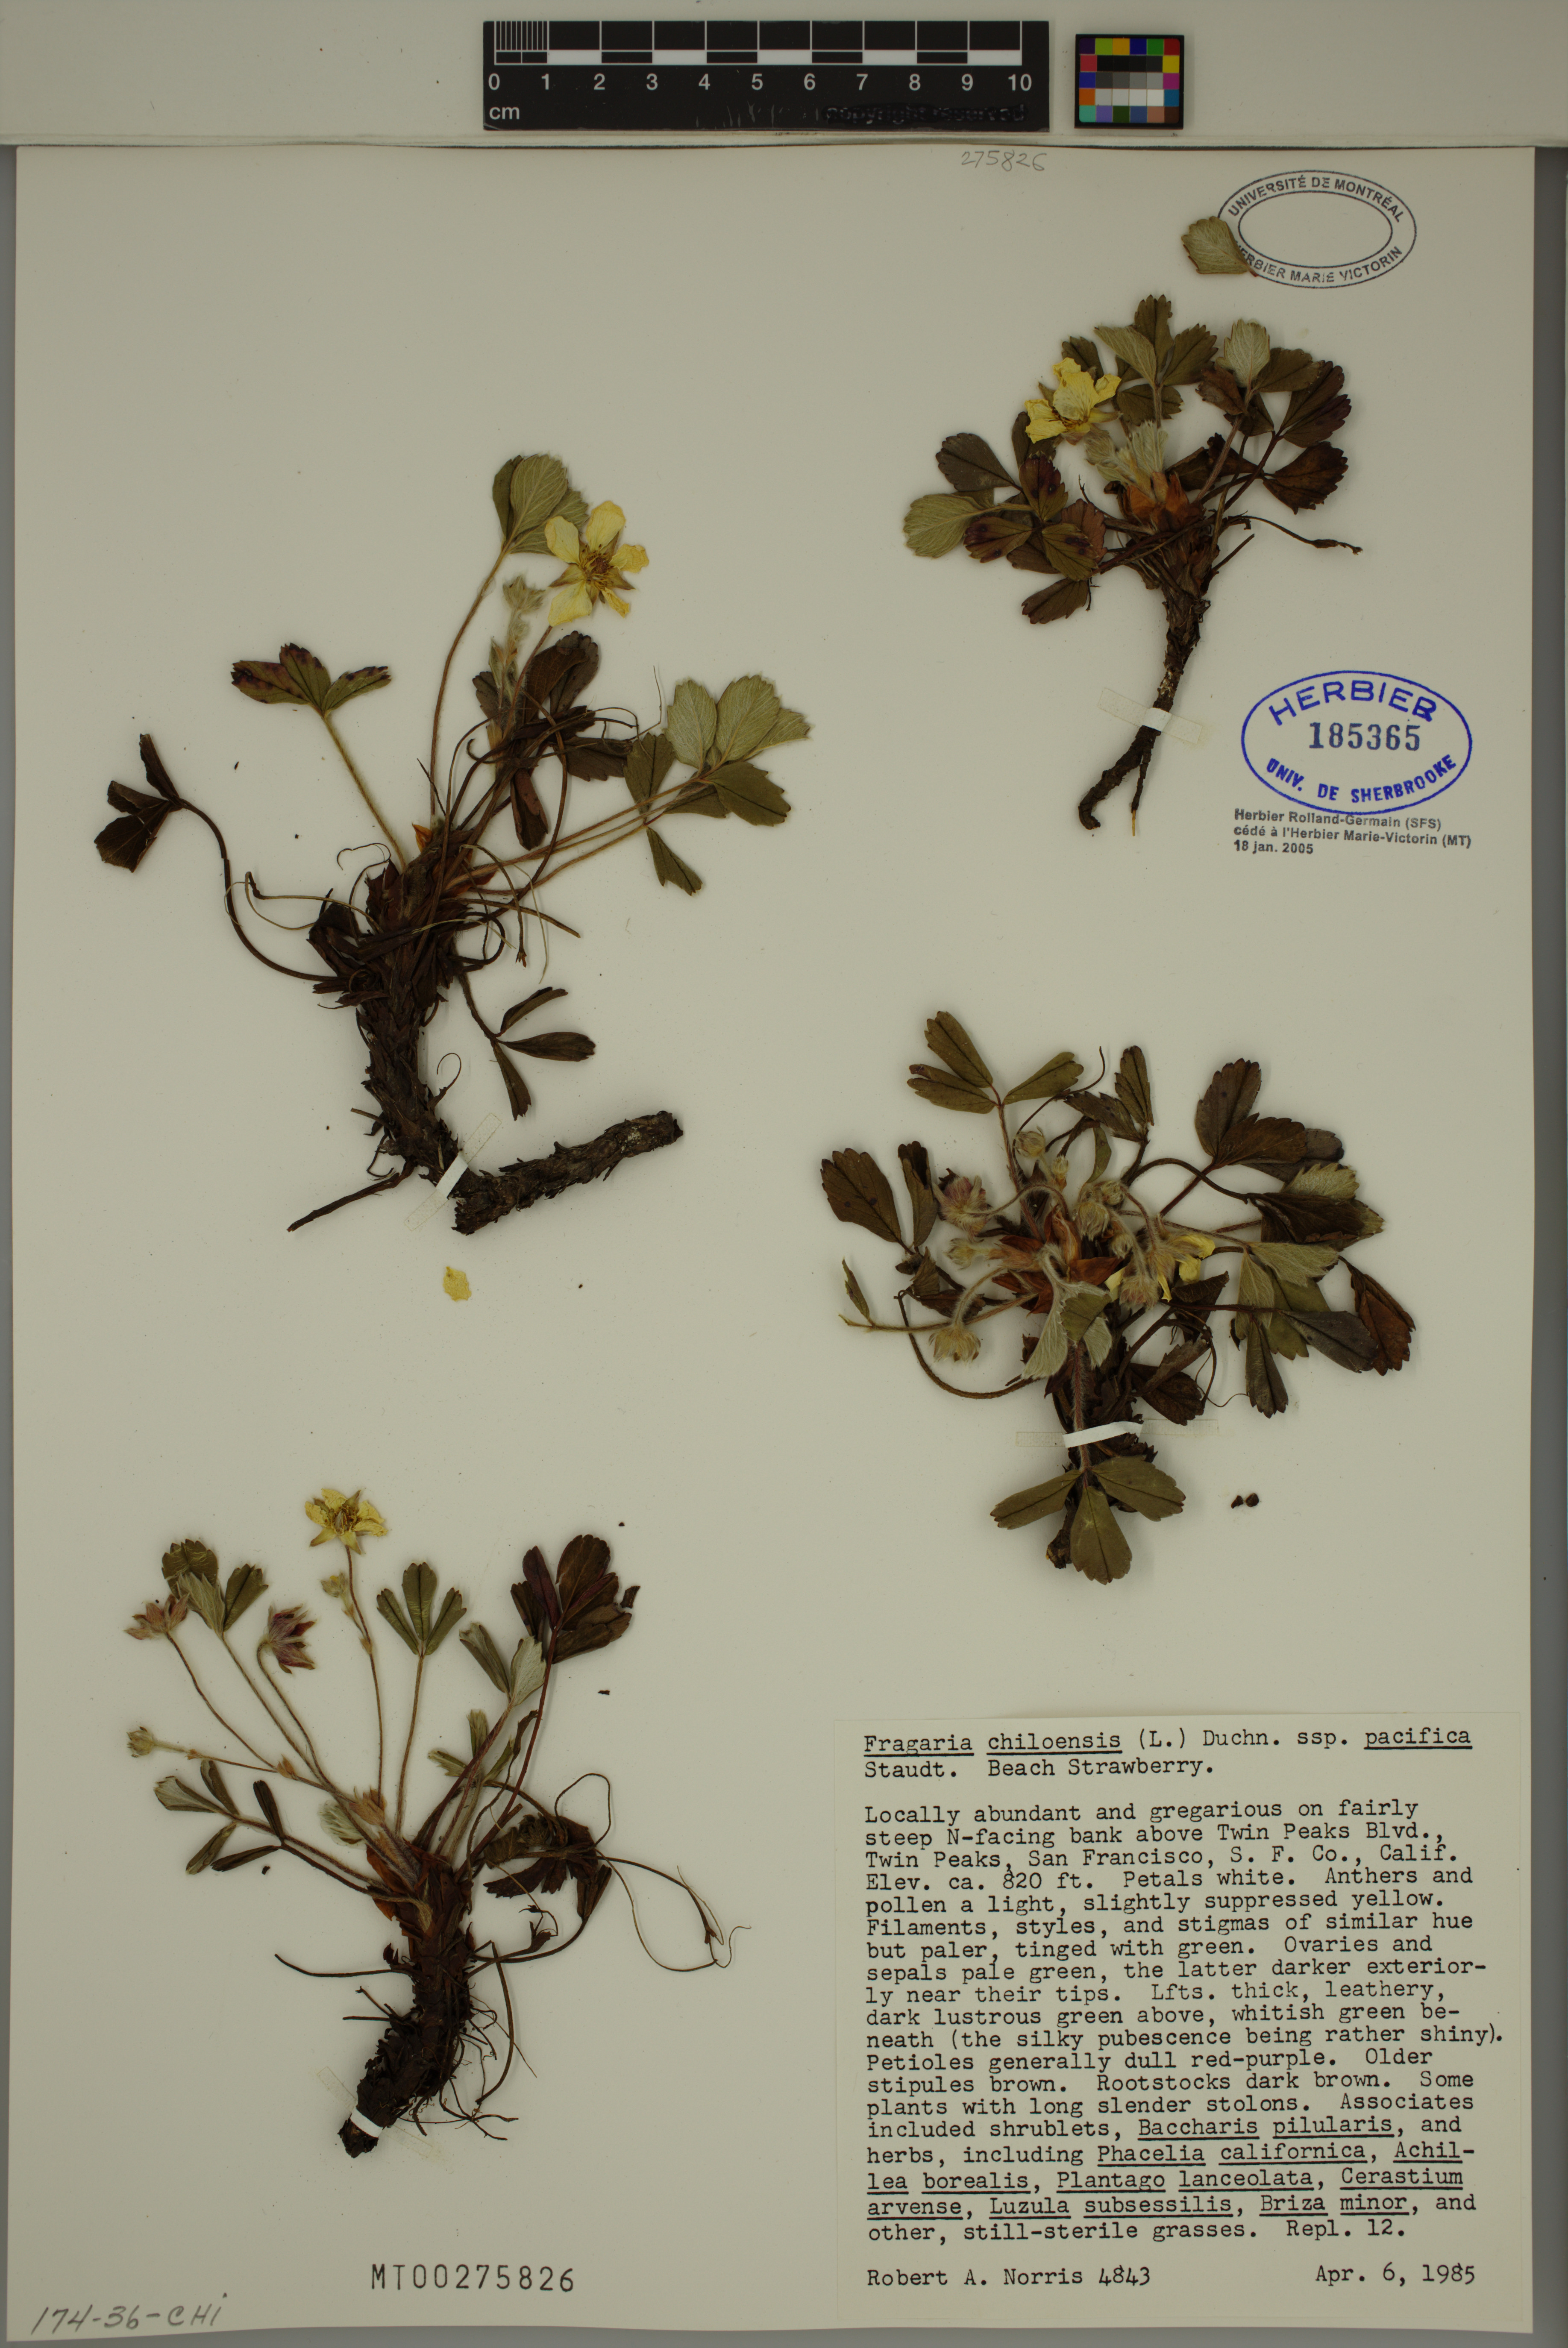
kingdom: Plantae
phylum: Tracheophyta
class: Magnoliopsida
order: Rosales
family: Rosaceae
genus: Fragaria
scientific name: Fragaria chiloensis
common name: Beach strawberry
